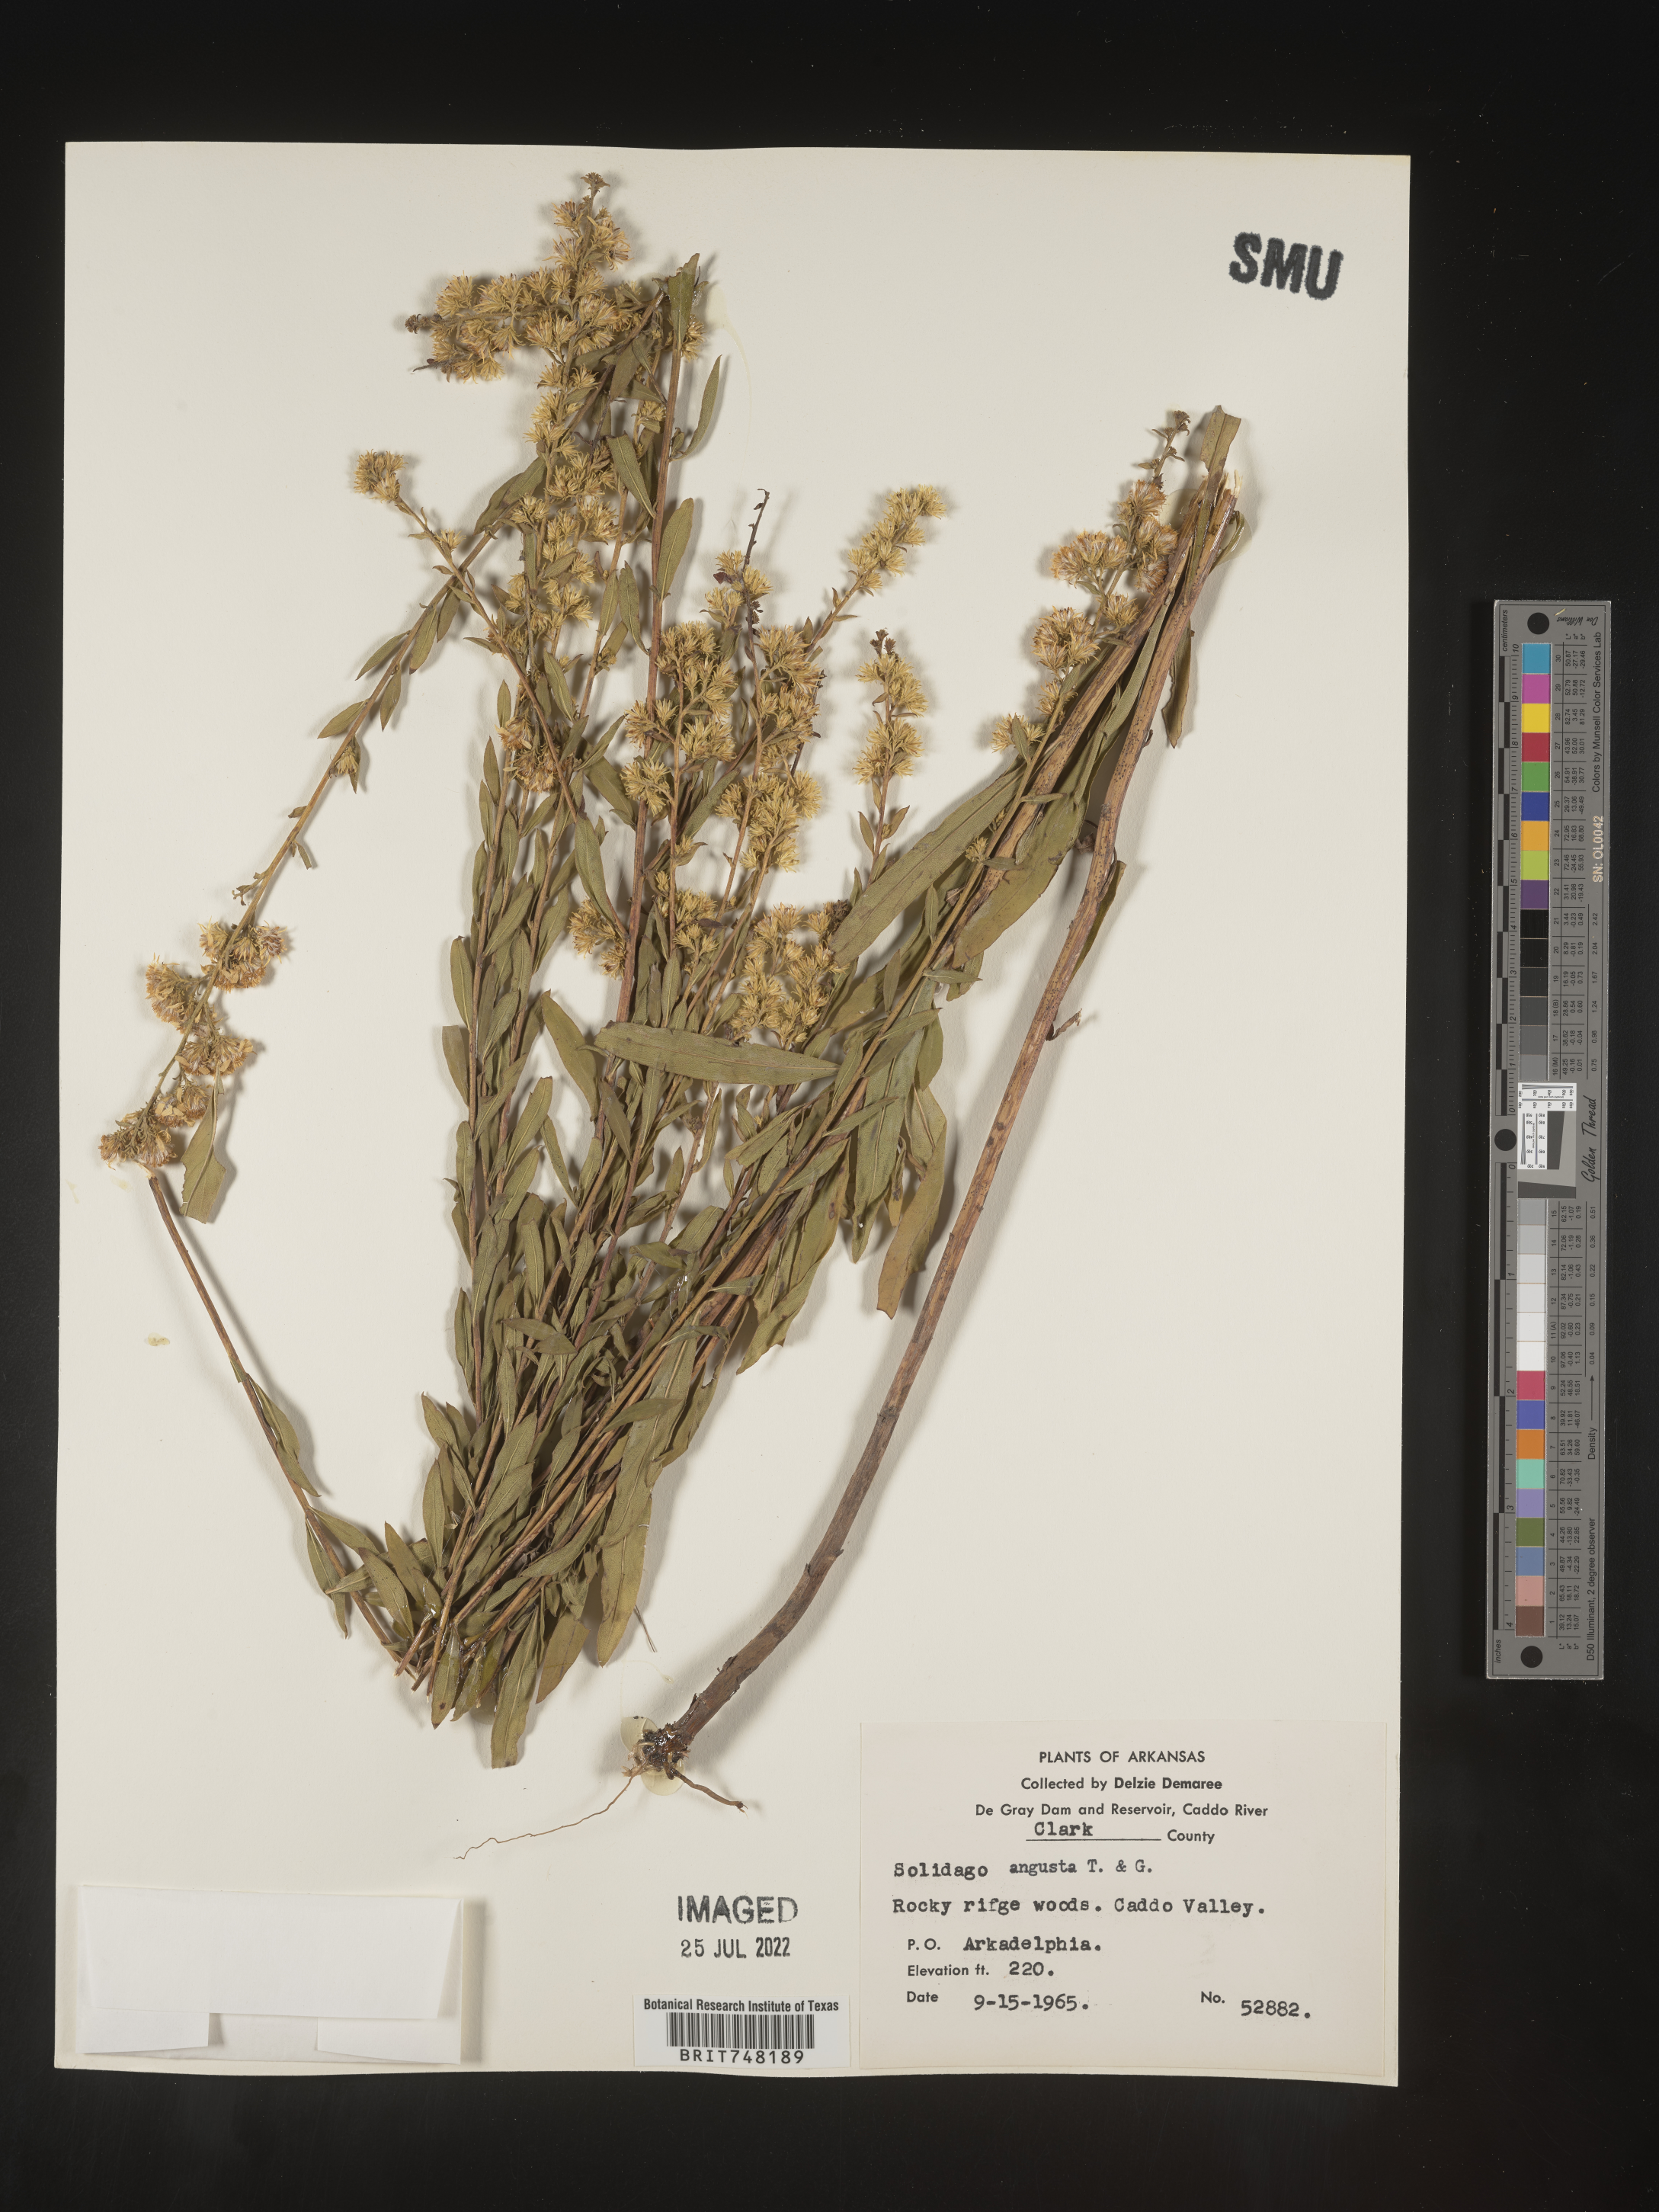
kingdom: Plantae
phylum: Tracheophyta
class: Magnoliopsida
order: Asterales
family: Asteraceae
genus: Solidago
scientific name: Solidago petiolaris
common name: Downy ragged goldenrod
